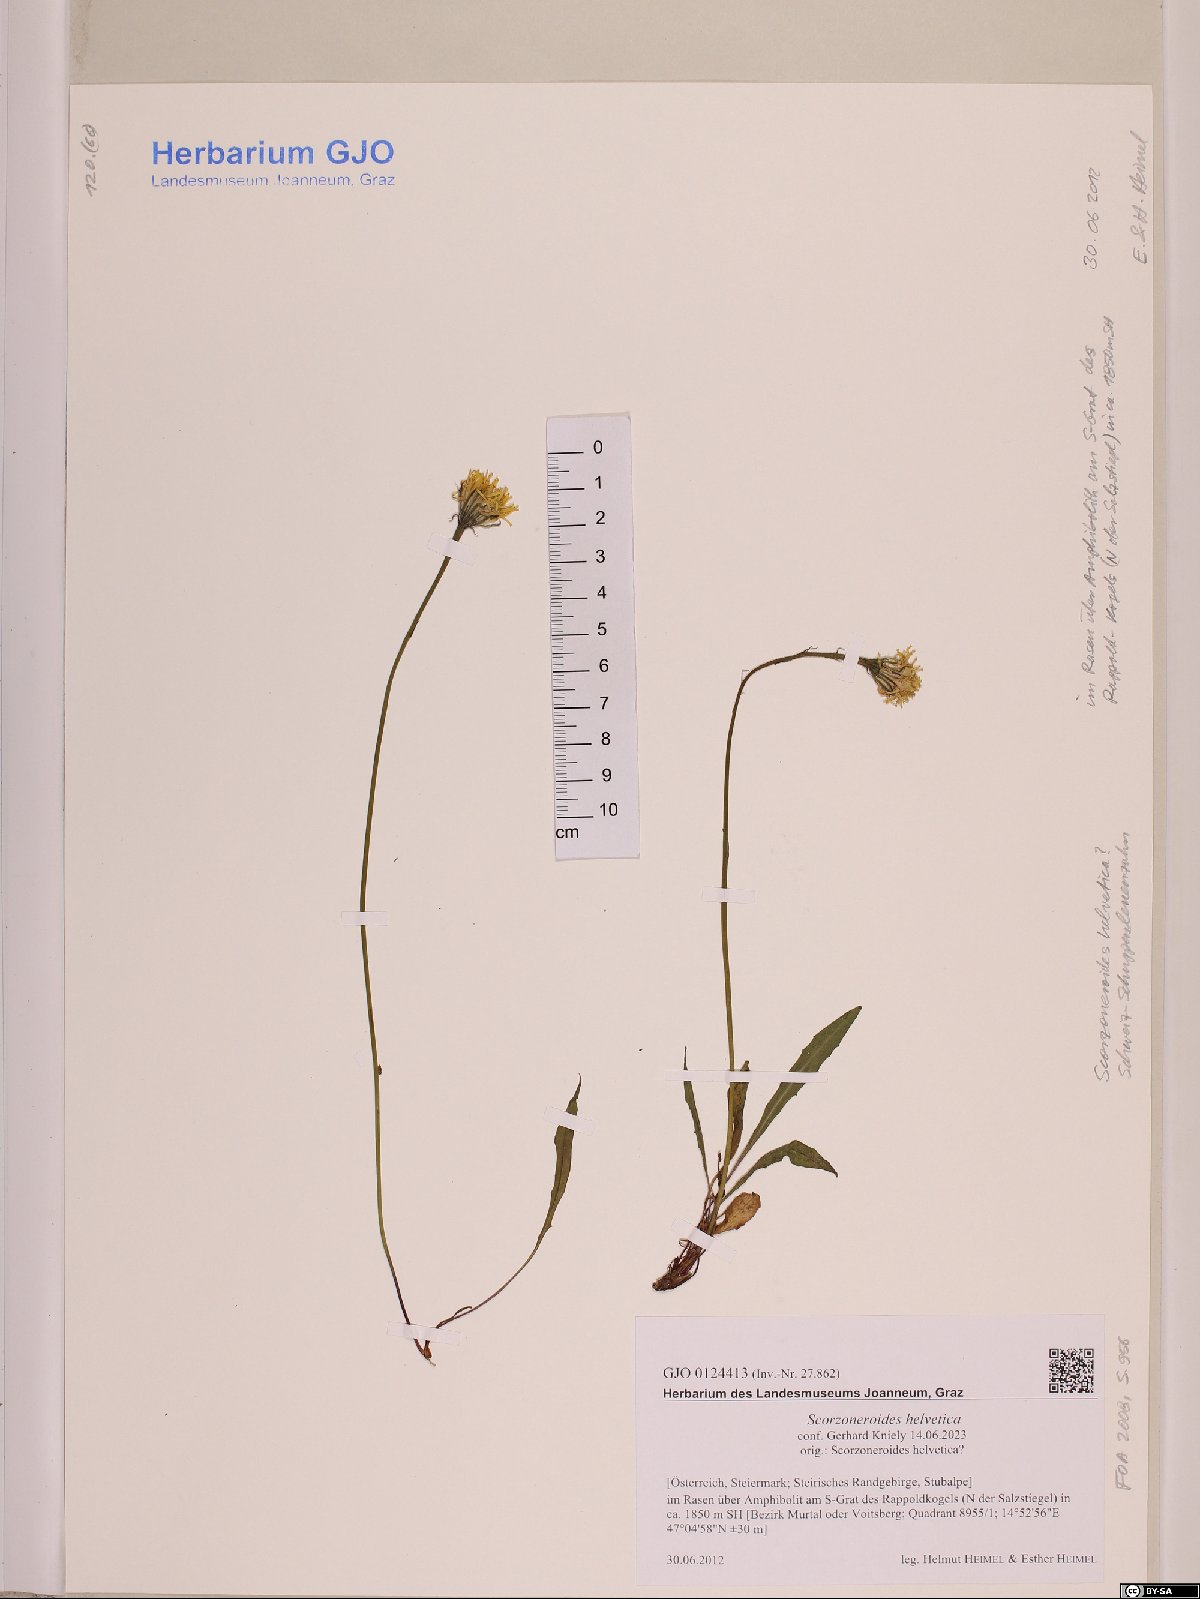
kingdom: Plantae
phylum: Tracheophyta
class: Magnoliopsida
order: Asterales
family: Asteraceae
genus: Scorzoneroides
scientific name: Scorzoneroides helvetica
